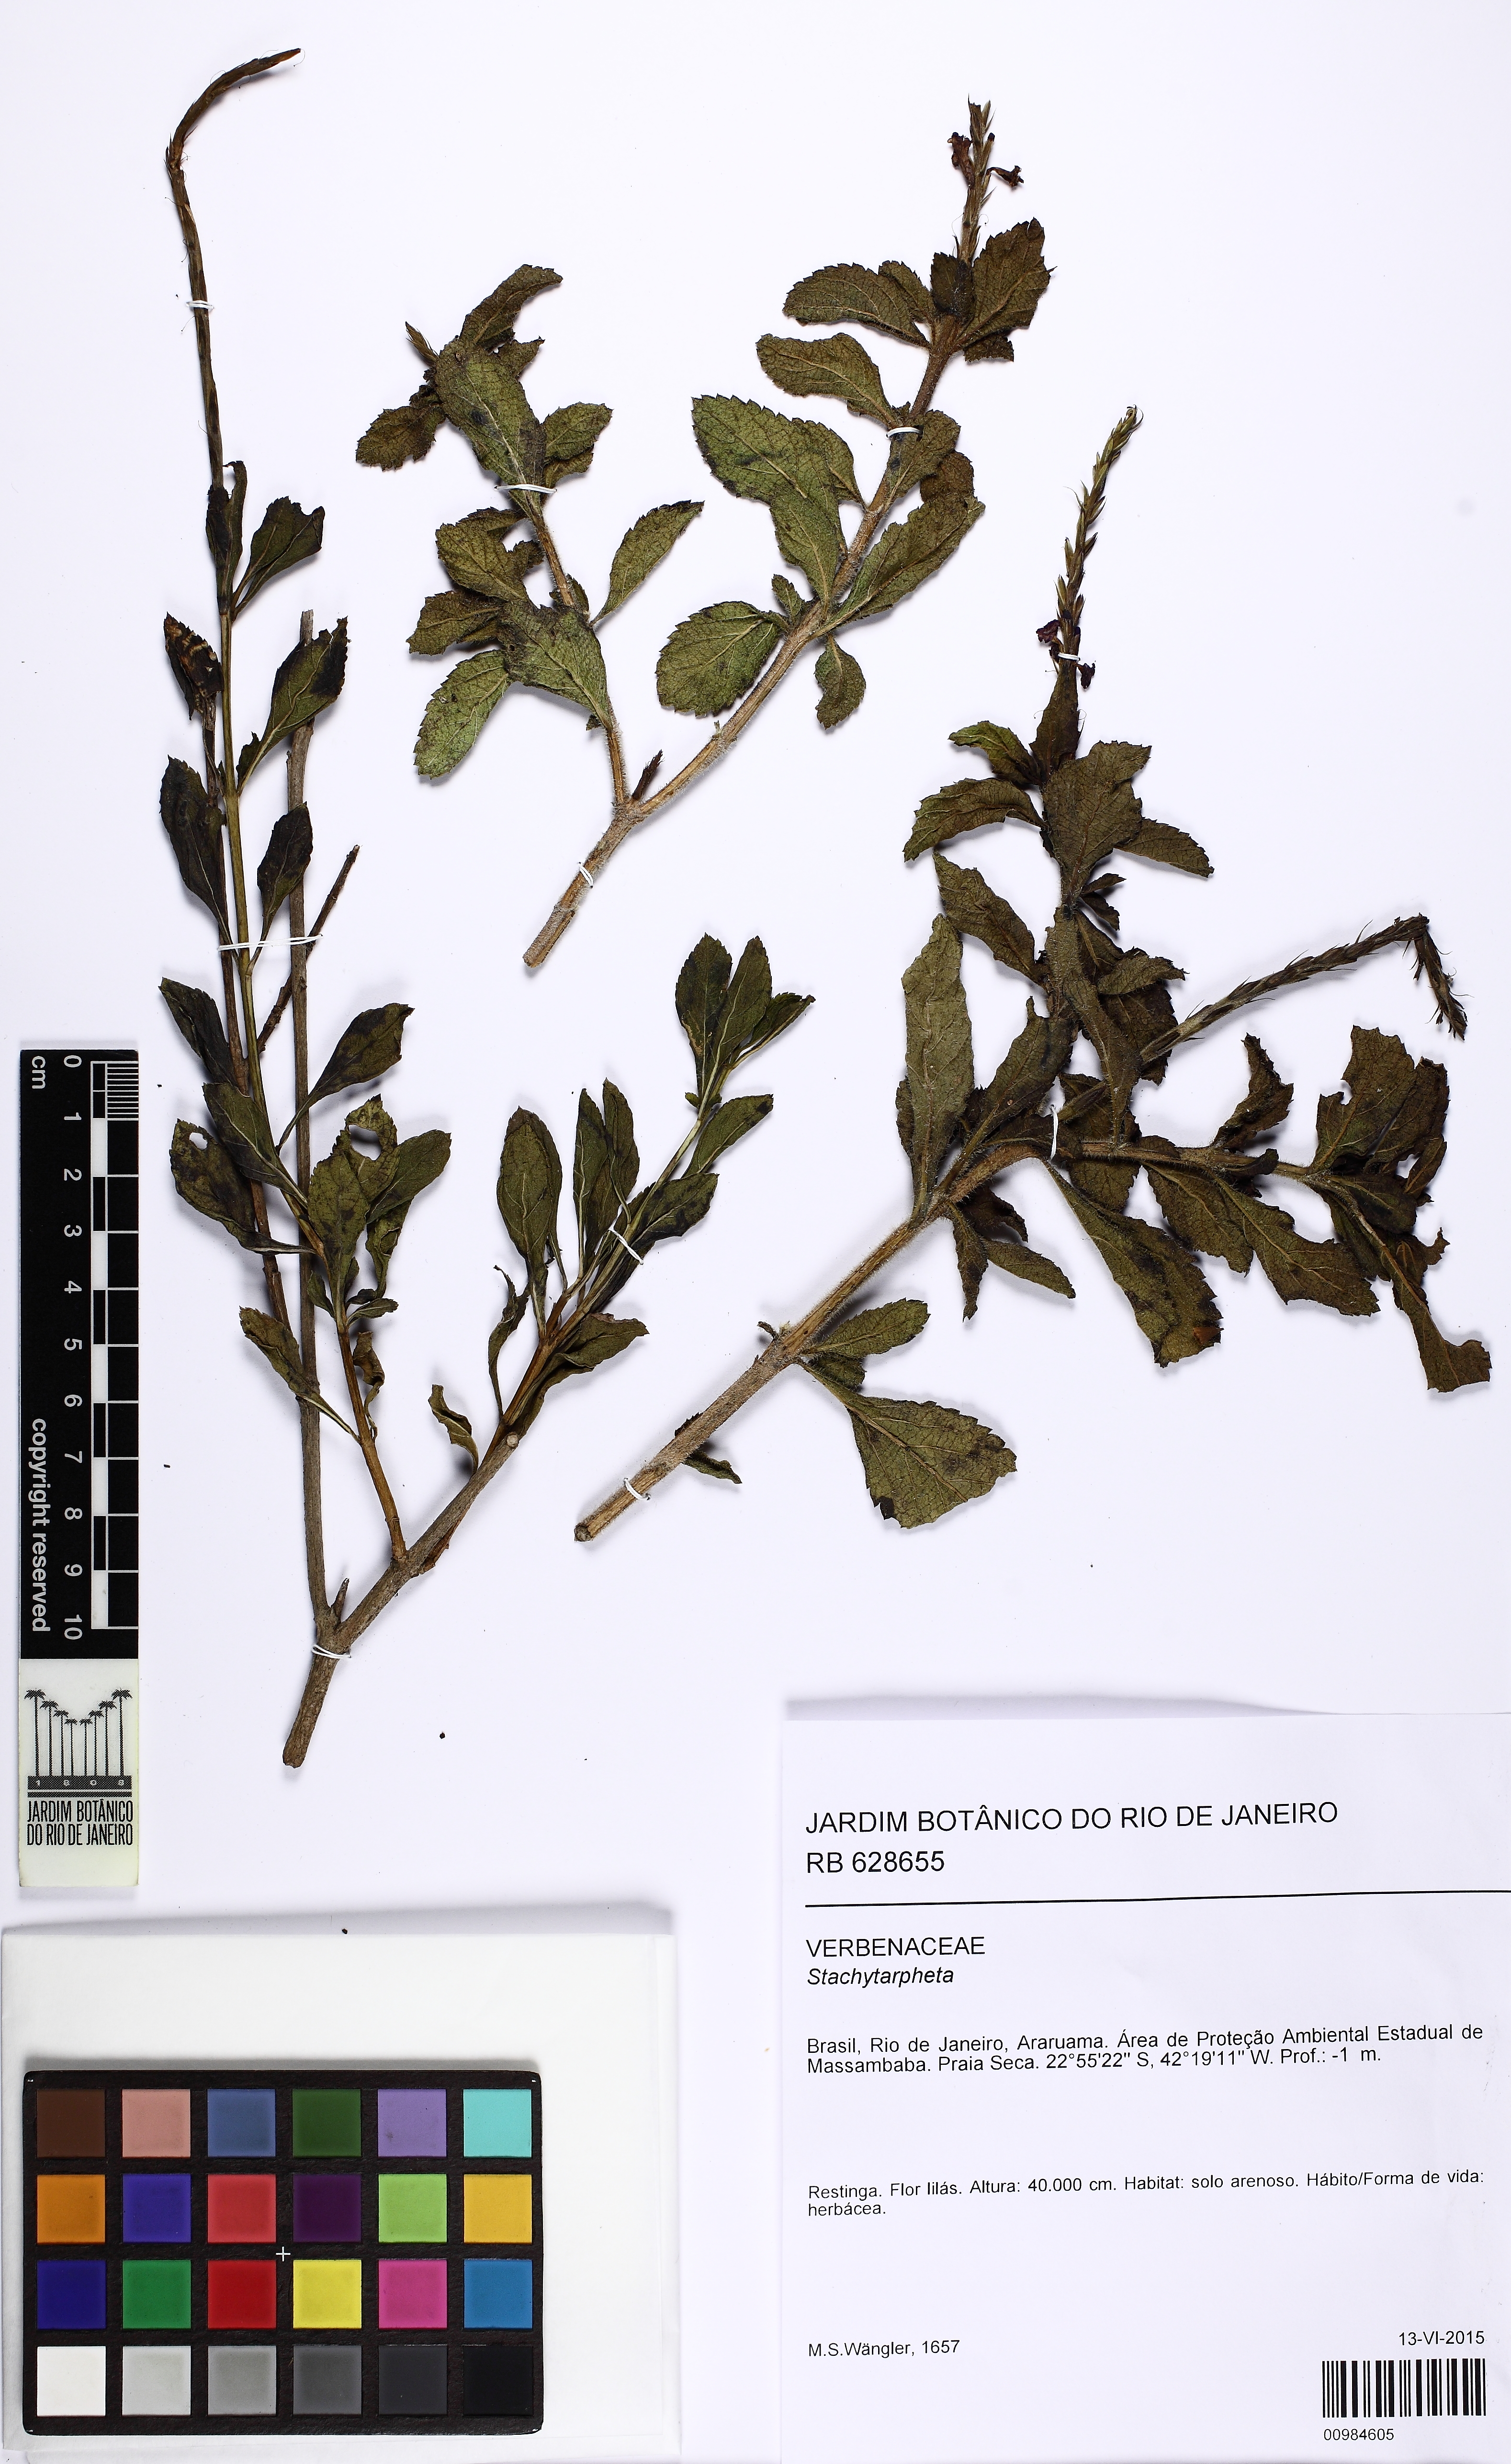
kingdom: Plantae
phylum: Tracheophyta
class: Magnoliopsida
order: Lamiales
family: Verbenaceae
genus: Stachytarpheta
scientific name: Stachytarpheta
